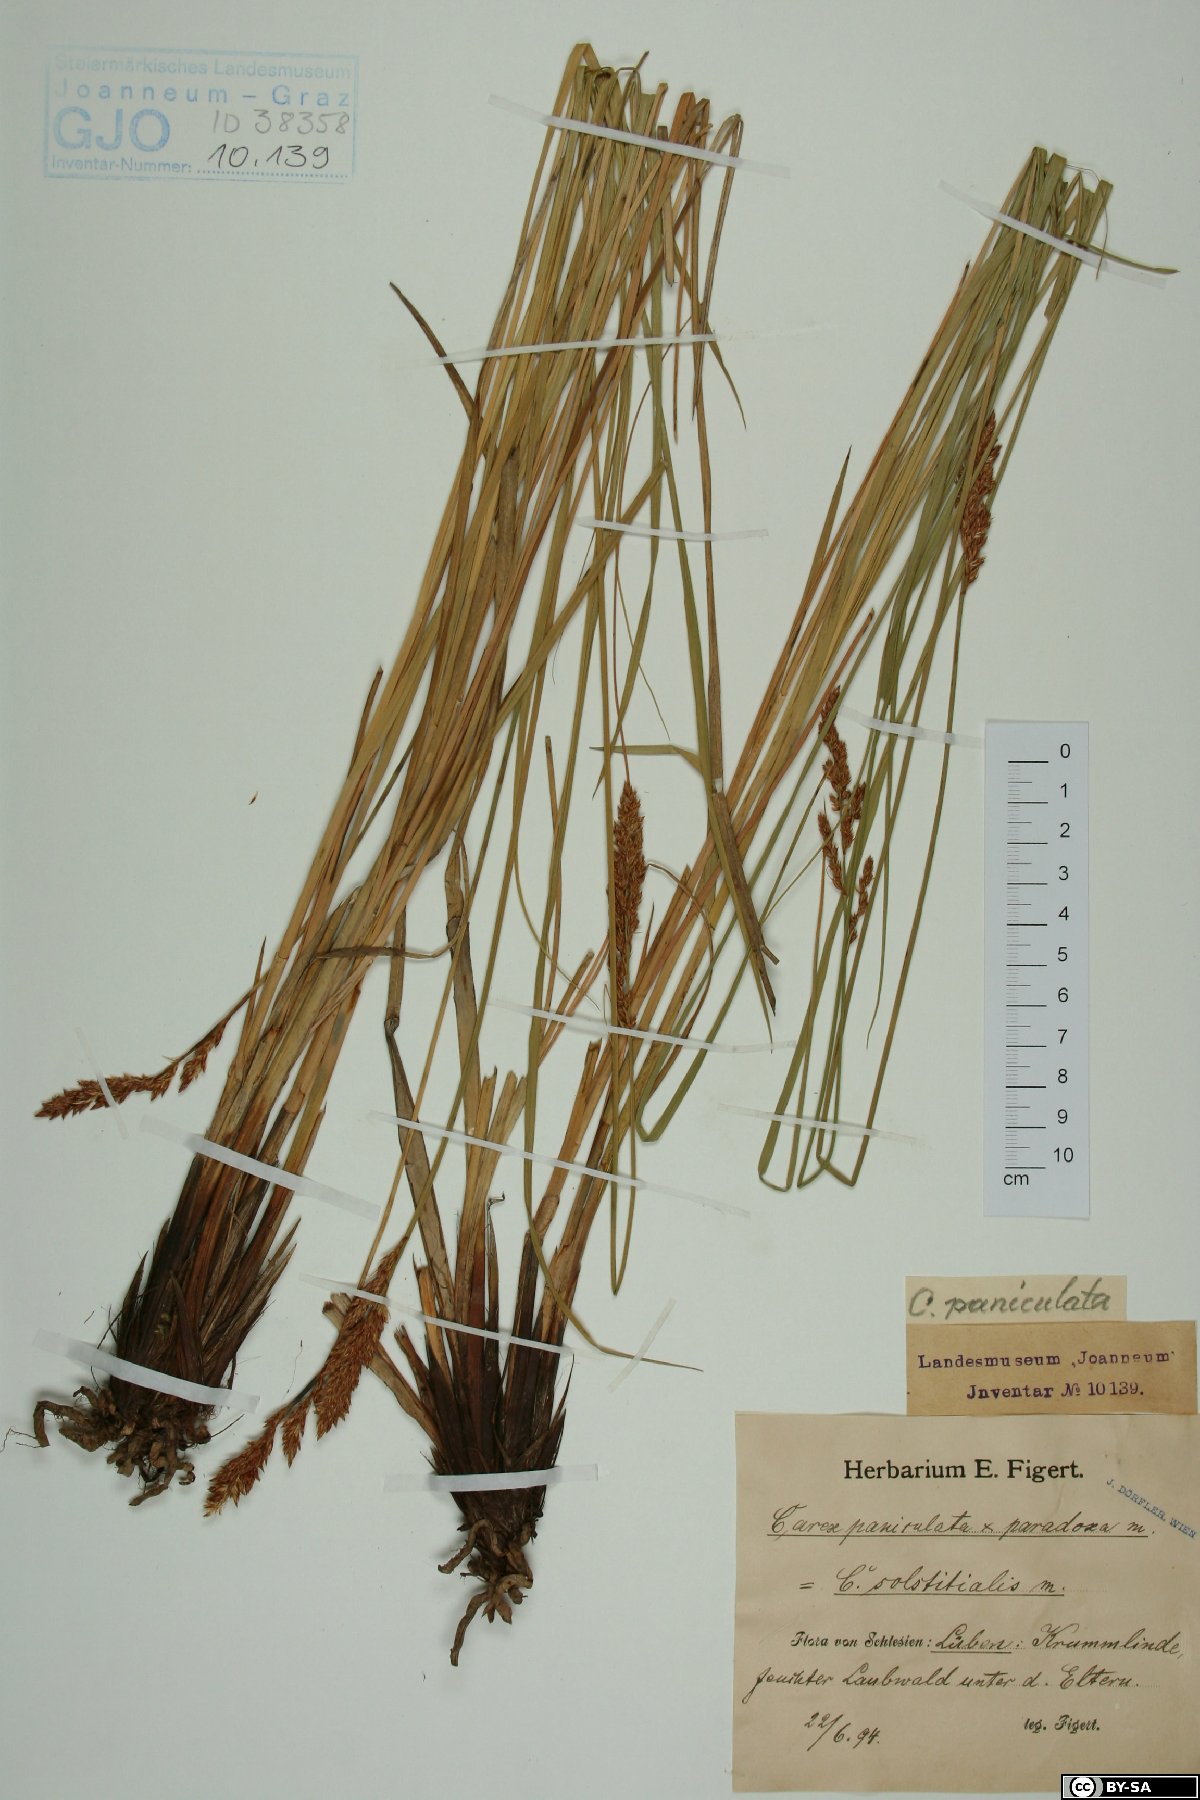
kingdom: Plantae
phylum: Tracheophyta
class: Liliopsida
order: Poales
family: Cyperaceae
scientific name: Cyperaceae
